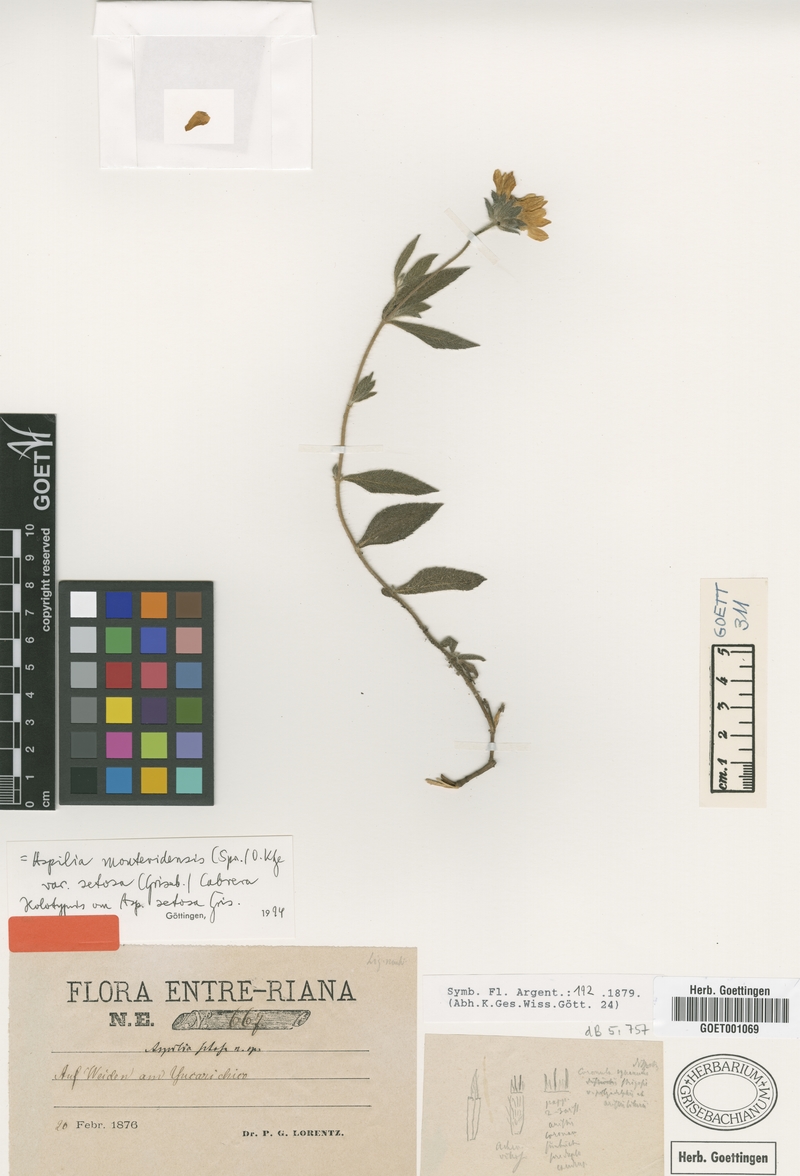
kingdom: Plantae
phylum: Tracheophyta
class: Magnoliopsida
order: Asterales
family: Asteraceae
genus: Wedelia
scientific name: Wedelia montevidensis
